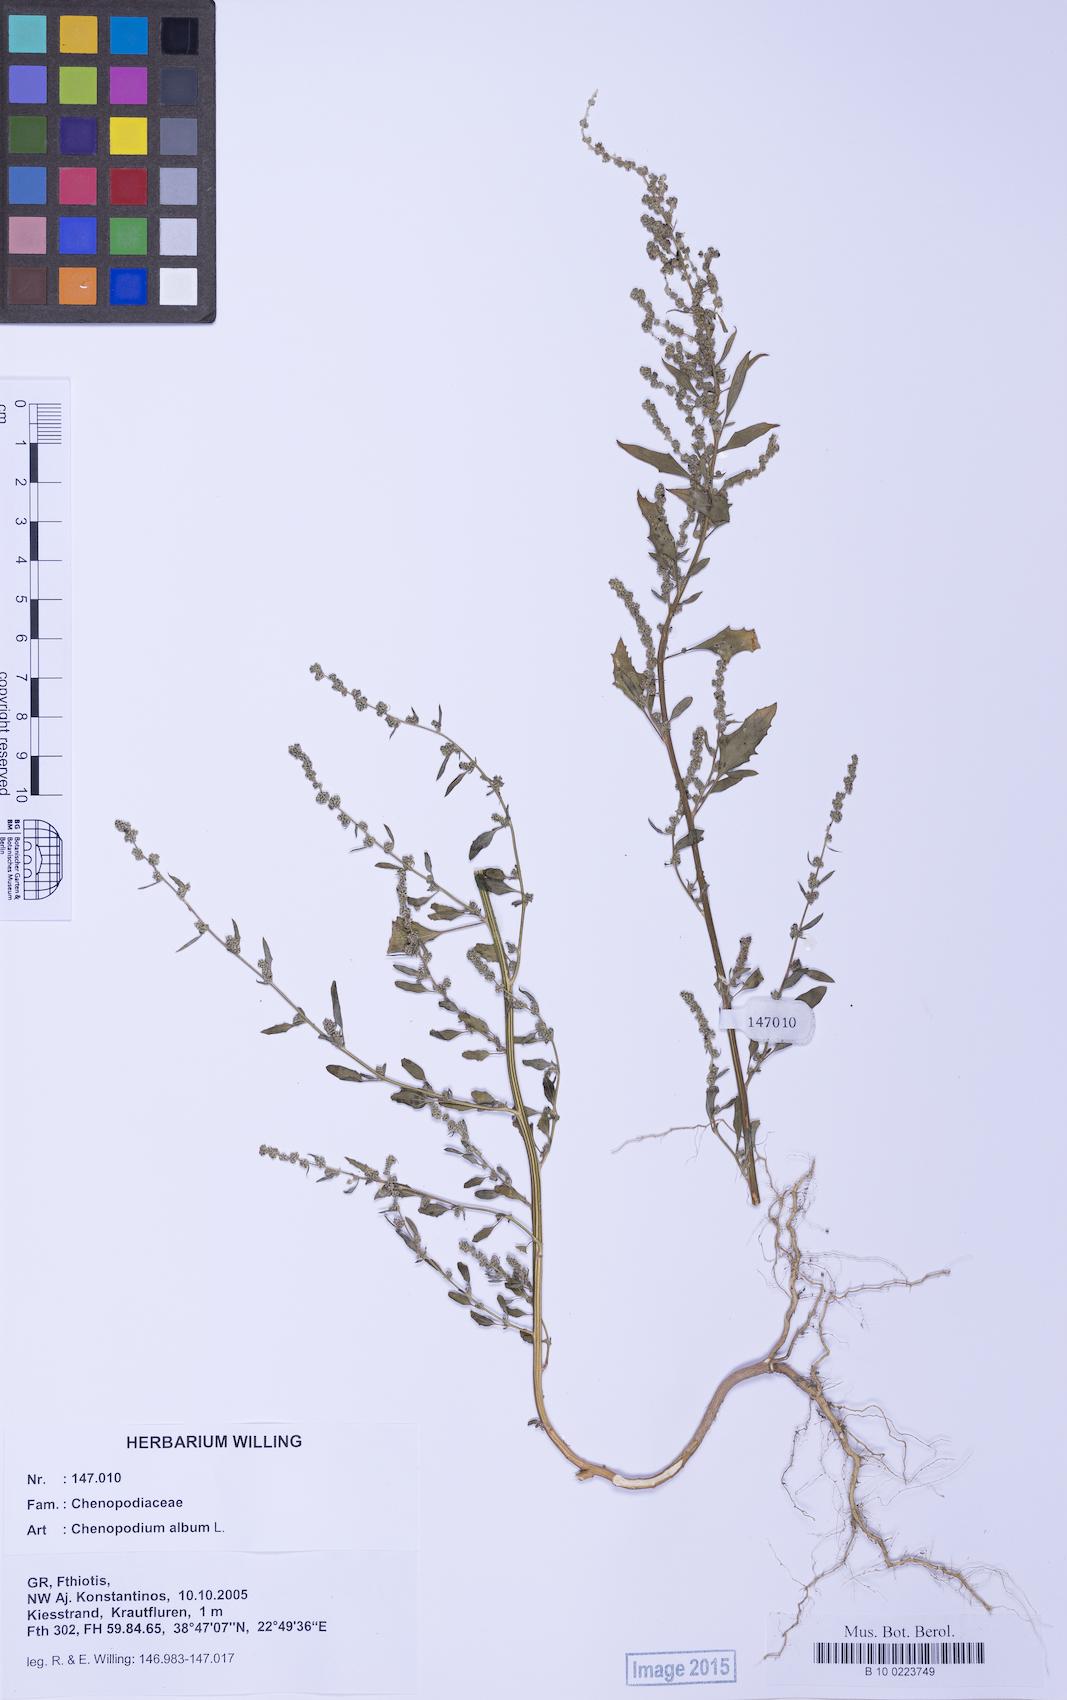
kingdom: Plantae
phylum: Tracheophyta
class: Magnoliopsida
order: Caryophyllales
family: Amaranthaceae
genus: Chenopodium
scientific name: Chenopodium album
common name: Fat-hen
